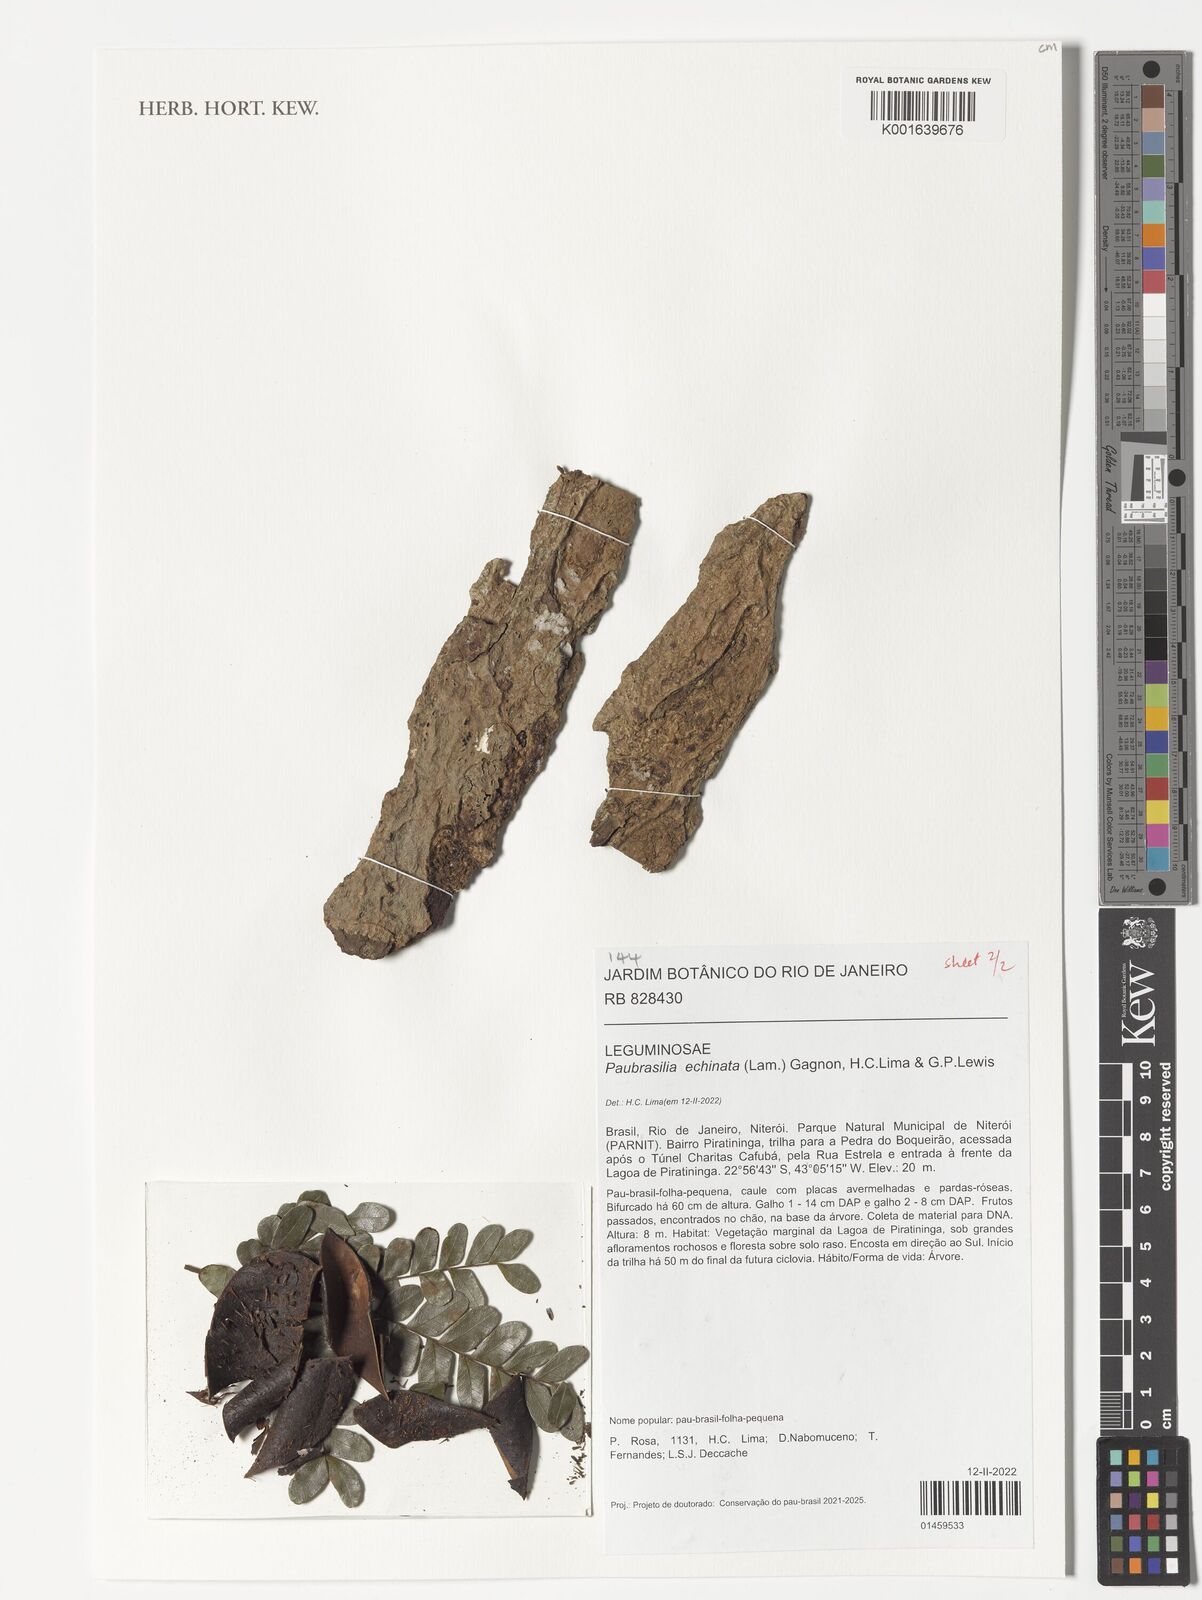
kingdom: Plantae
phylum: Tracheophyta
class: Magnoliopsida
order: Fabales
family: Fabaceae
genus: Paubrasilia
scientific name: Paubrasilia echinata
